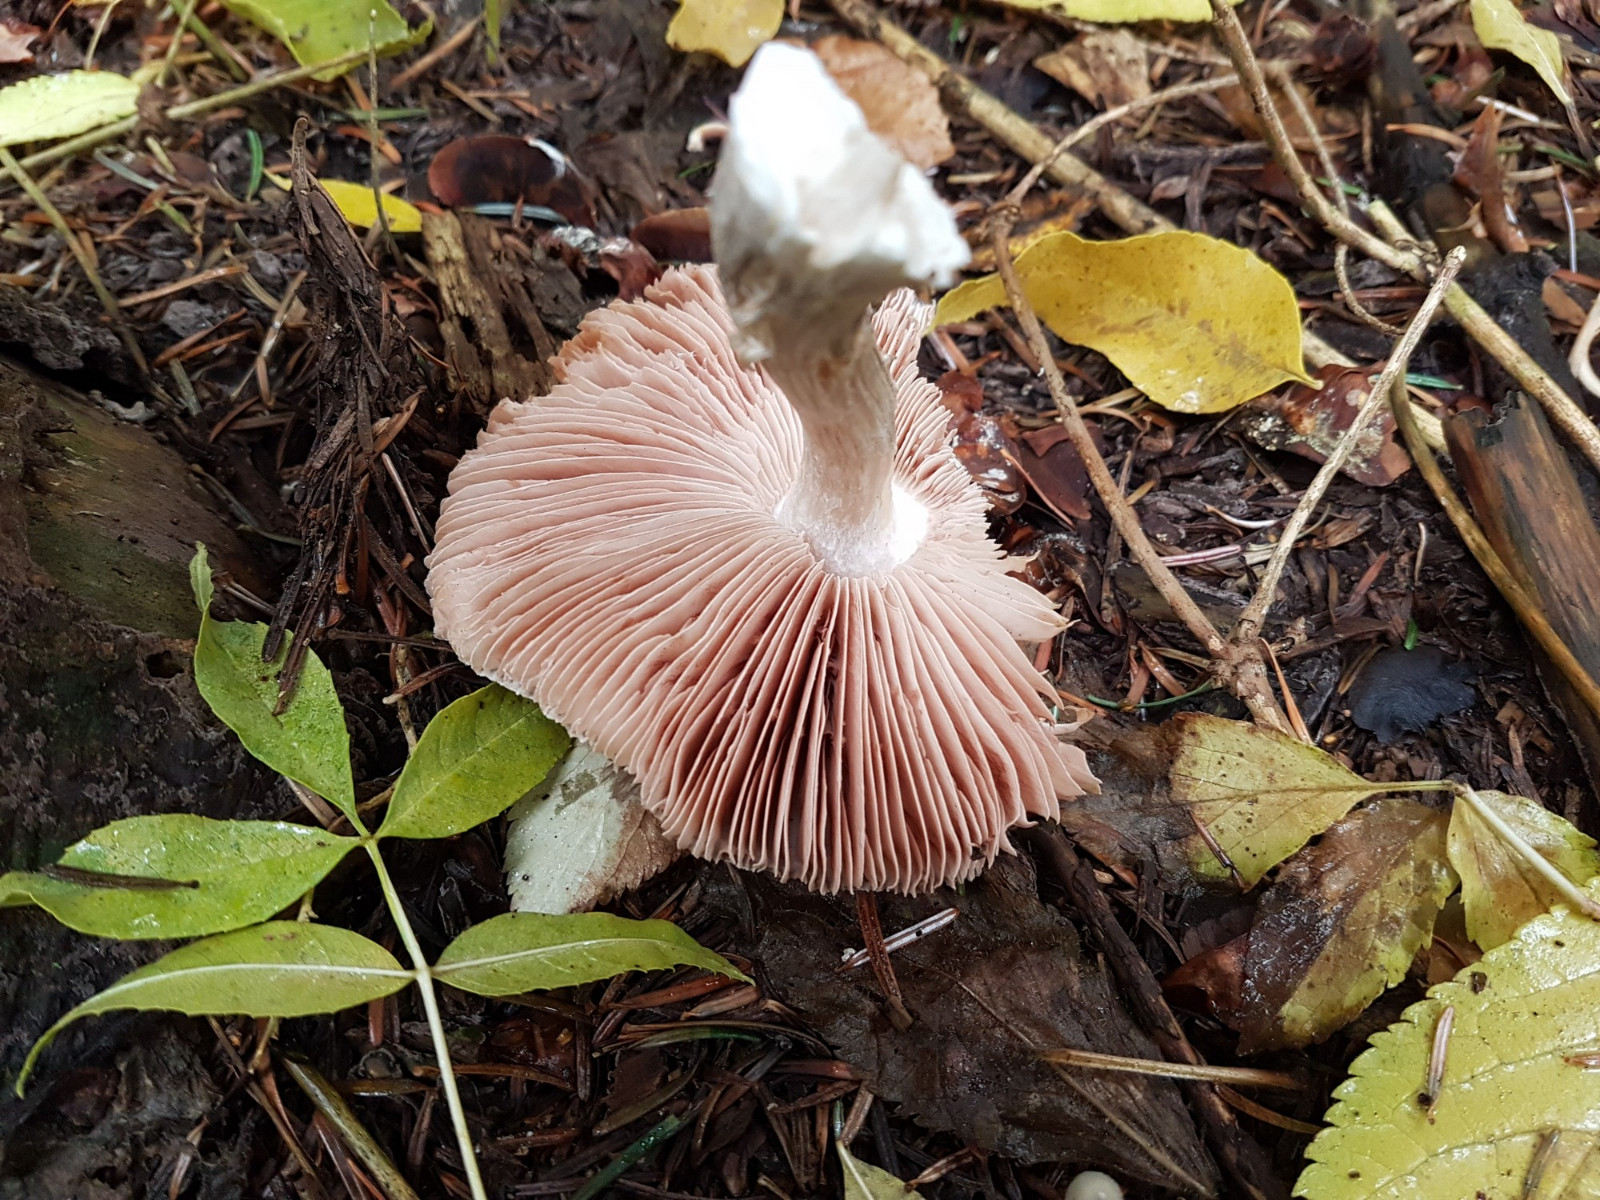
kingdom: Fungi
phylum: Basidiomycota
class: Agaricomycetes
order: Agaricales
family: Pluteaceae
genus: Pluteus
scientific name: Pluteus
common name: gråfibret skærmhat
